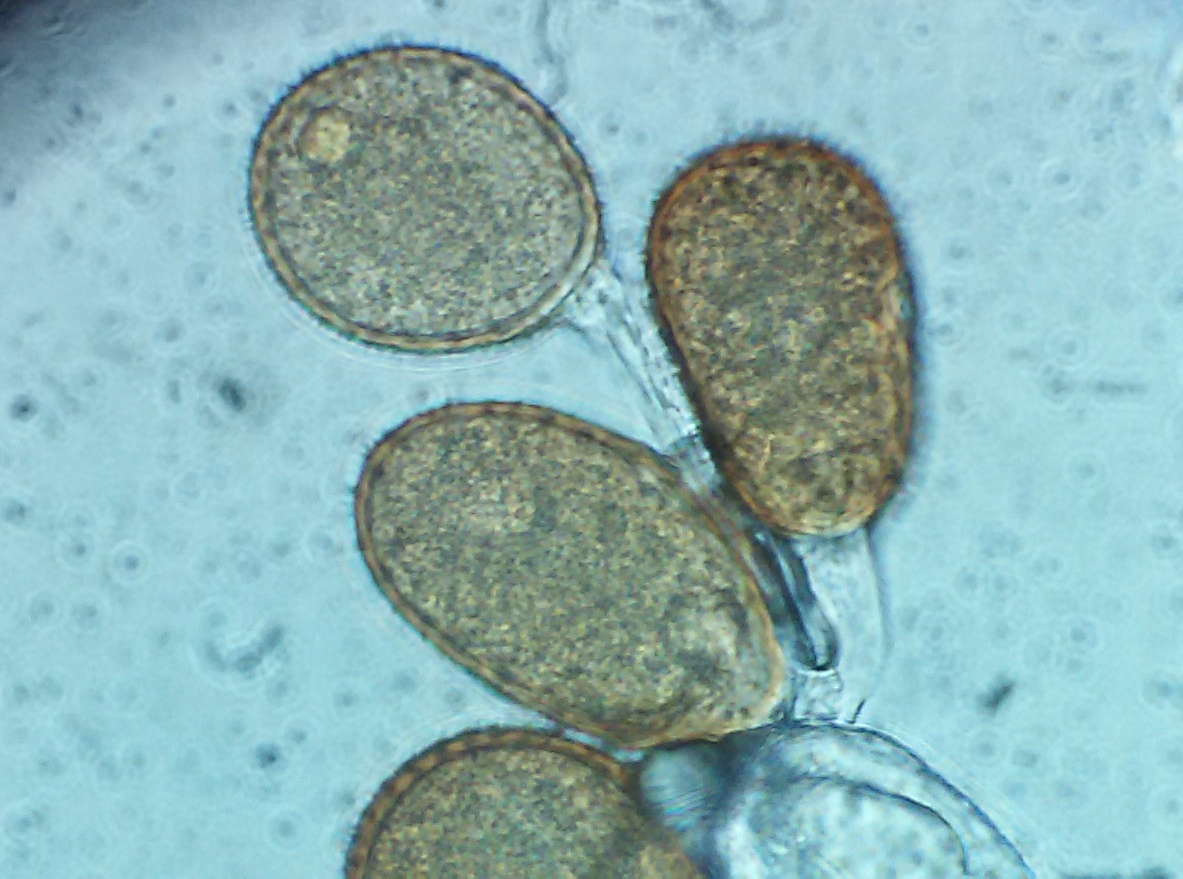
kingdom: Fungi
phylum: Basidiomycota
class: Pucciniomycetes
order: Pucciniales
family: Pucciniaceae
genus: Puccinia
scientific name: Puccinia
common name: tvecellerust
